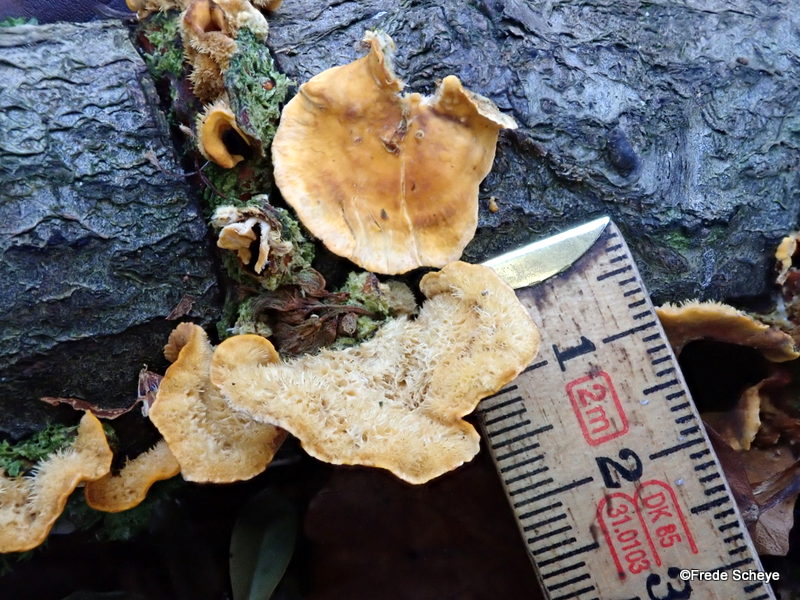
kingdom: Fungi
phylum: Basidiomycota
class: Agaricomycetes
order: Russulales
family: Stereaceae
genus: Stereum
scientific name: Stereum hirsutum
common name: håret lædersvamp
